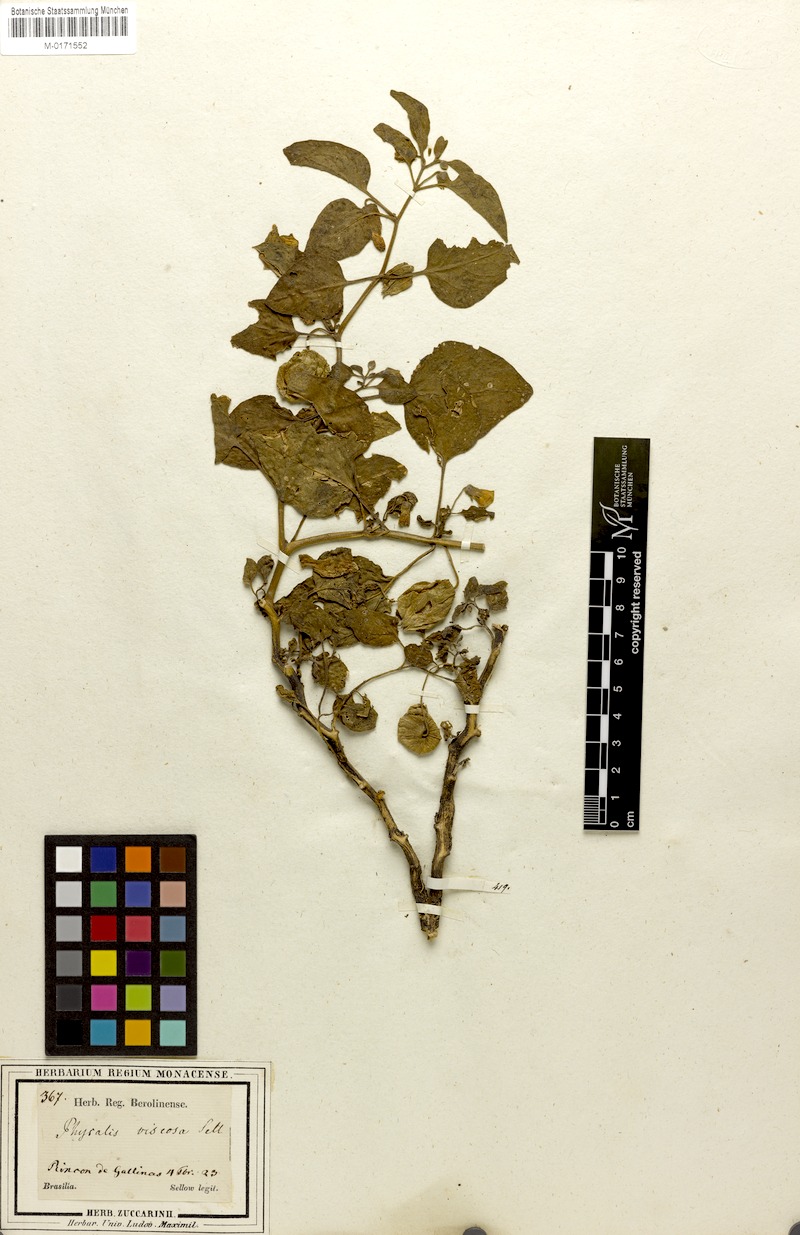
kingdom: Plantae
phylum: Tracheophyta
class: Magnoliopsida
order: Solanales
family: Solanaceae
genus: Physalis
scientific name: Physalis viscosa
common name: Stellate ground-cherry
